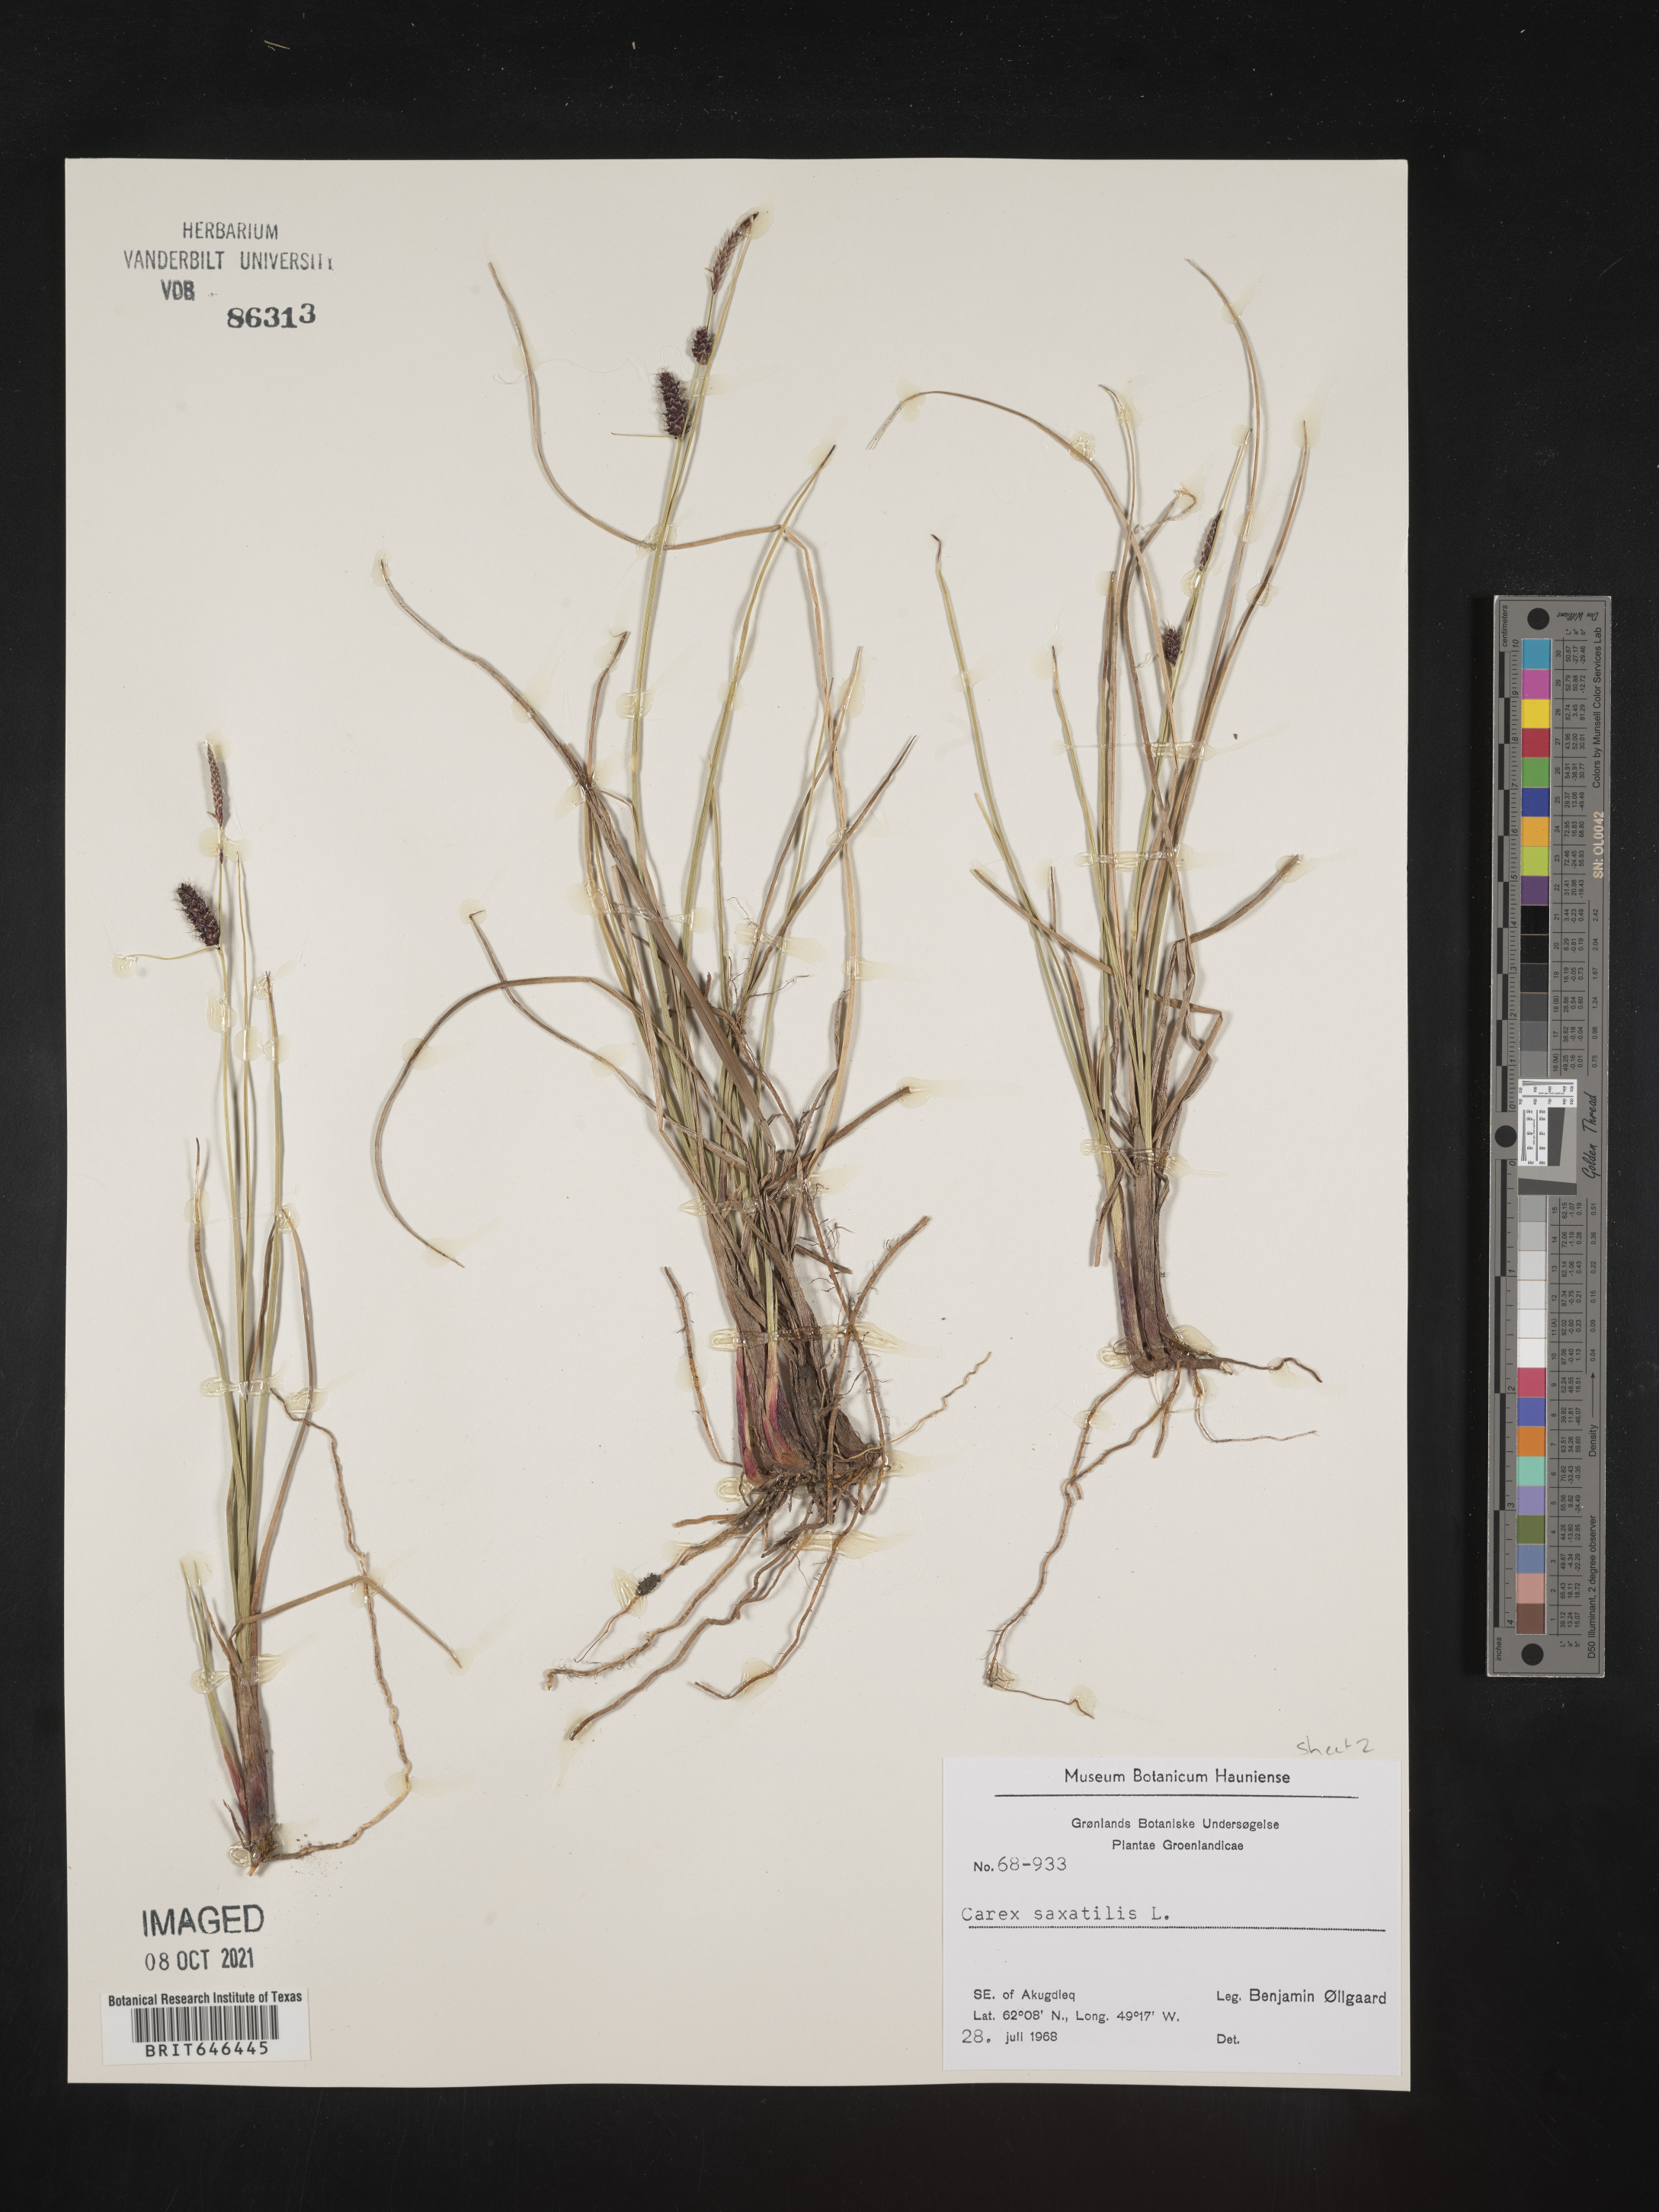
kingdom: Plantae
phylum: Tracheophyta
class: Liliopsida
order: Poales
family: Cyperaceae
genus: Carex
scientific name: Carex saxatilis
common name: Russet sedge
